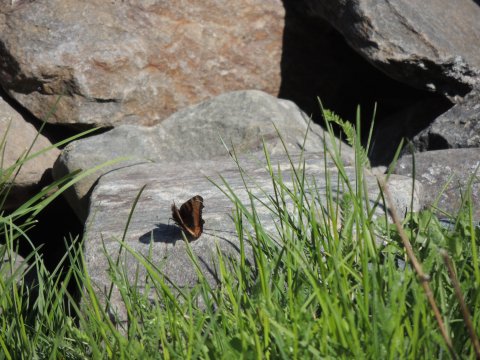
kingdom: Animalia
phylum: Arthropoda
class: Insecta
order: Lepidoptera
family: Nymphalidae
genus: Nymphalis
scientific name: Nymphalis californica
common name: California Tortoiseshell
